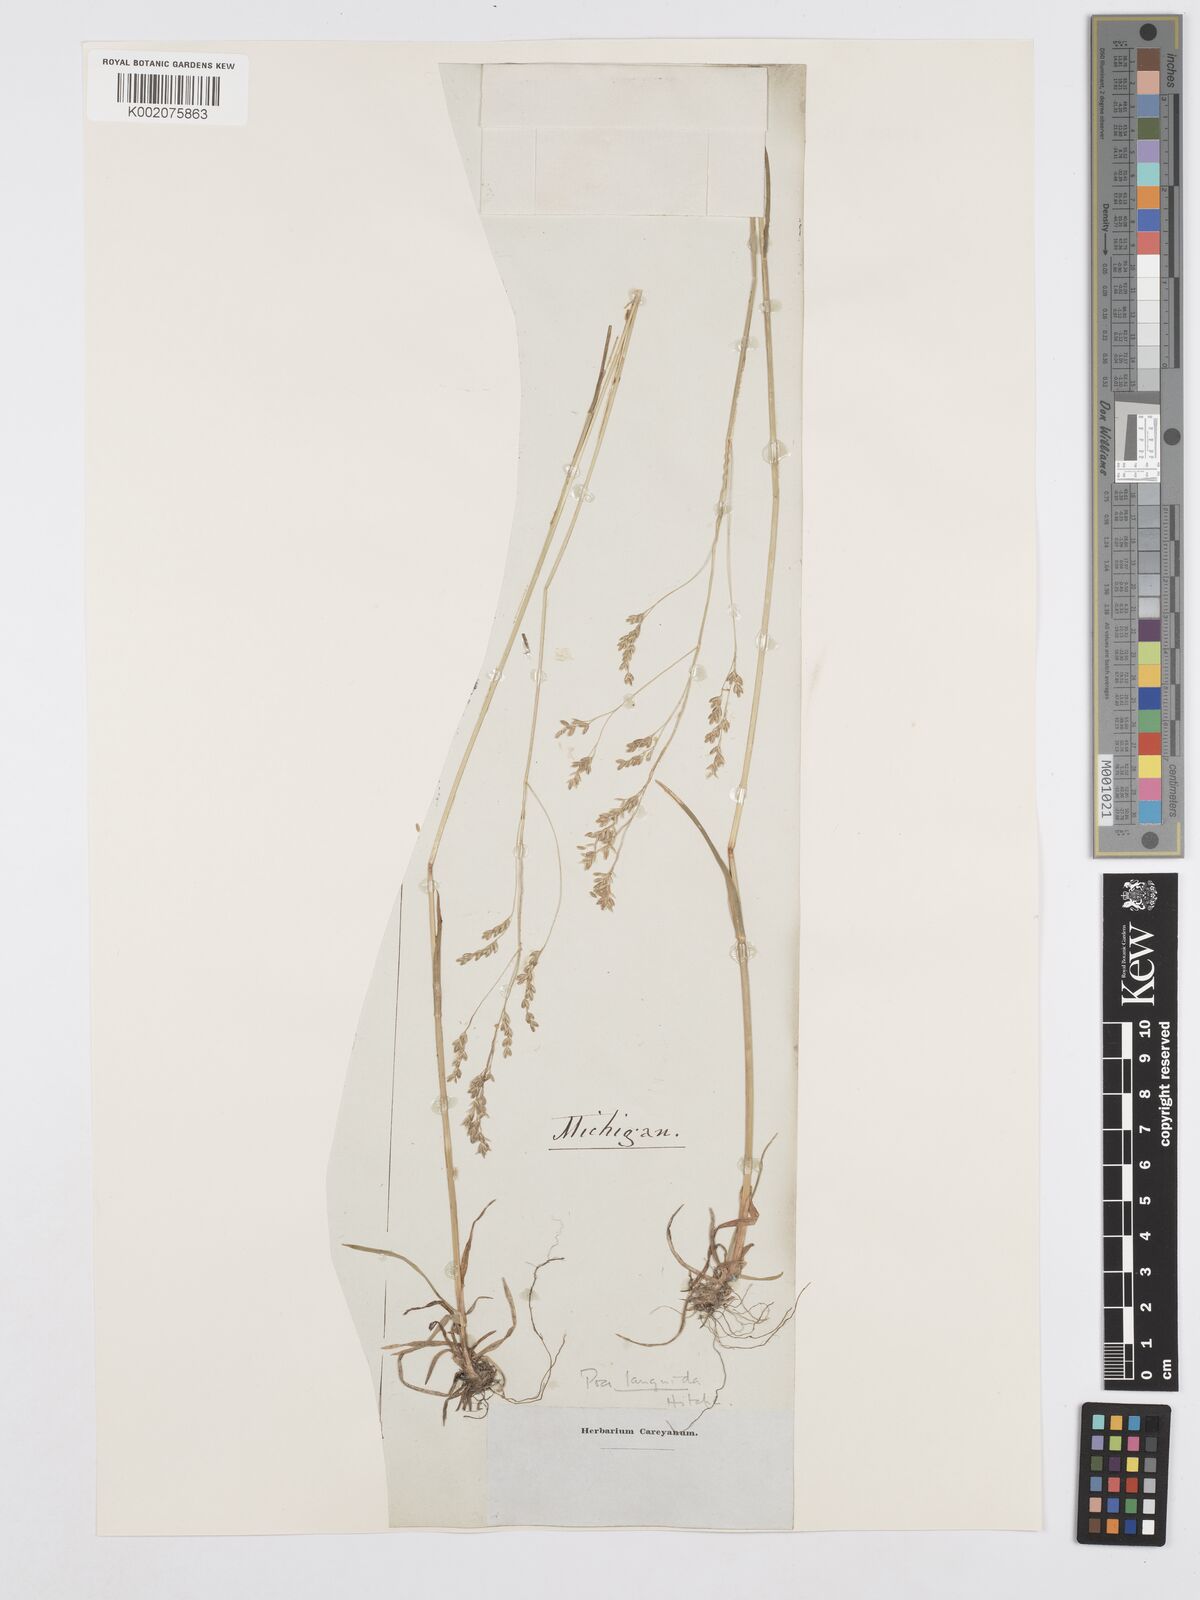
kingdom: Plantae
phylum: Tracheophyta
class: Liliopsida
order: Poales
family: Poaceae
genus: Poa
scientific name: Poa saltuensis
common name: Bushy pasture speargrass
